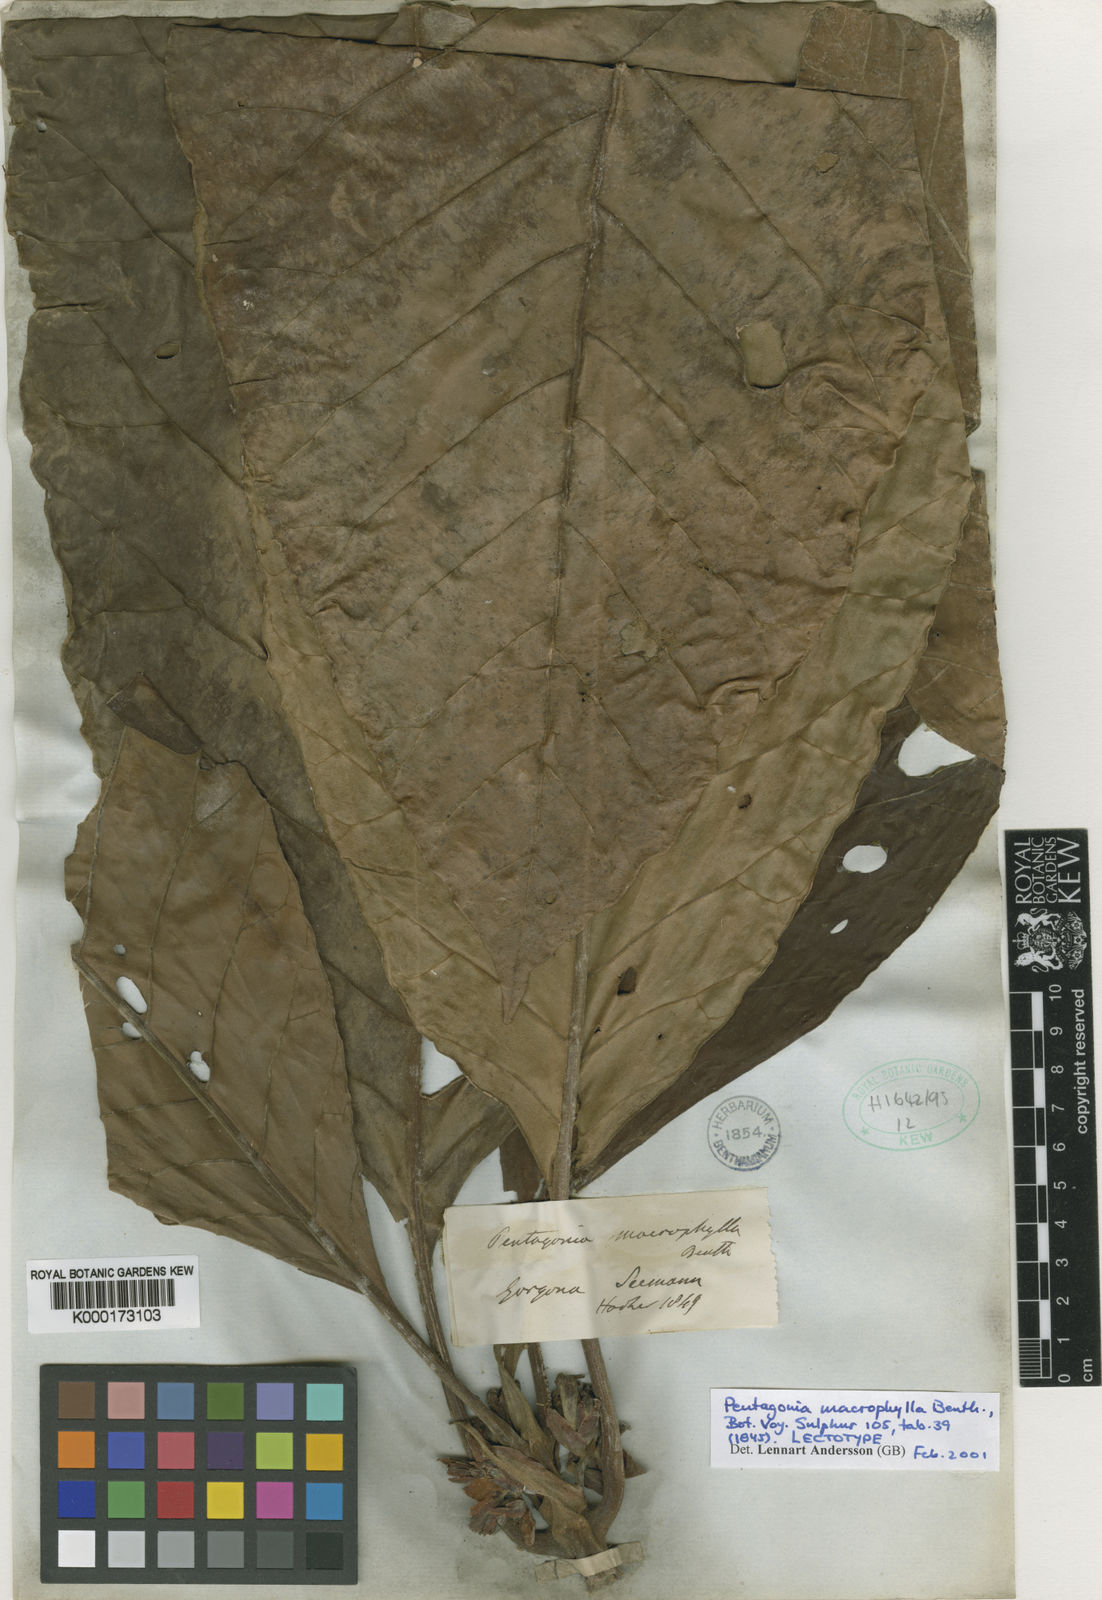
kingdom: Plantae
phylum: Tracheophyta
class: Magnoliopsida
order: Gentianales
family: Rubiaceae
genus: Pentagonia
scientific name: Pentagonia macrophylla
